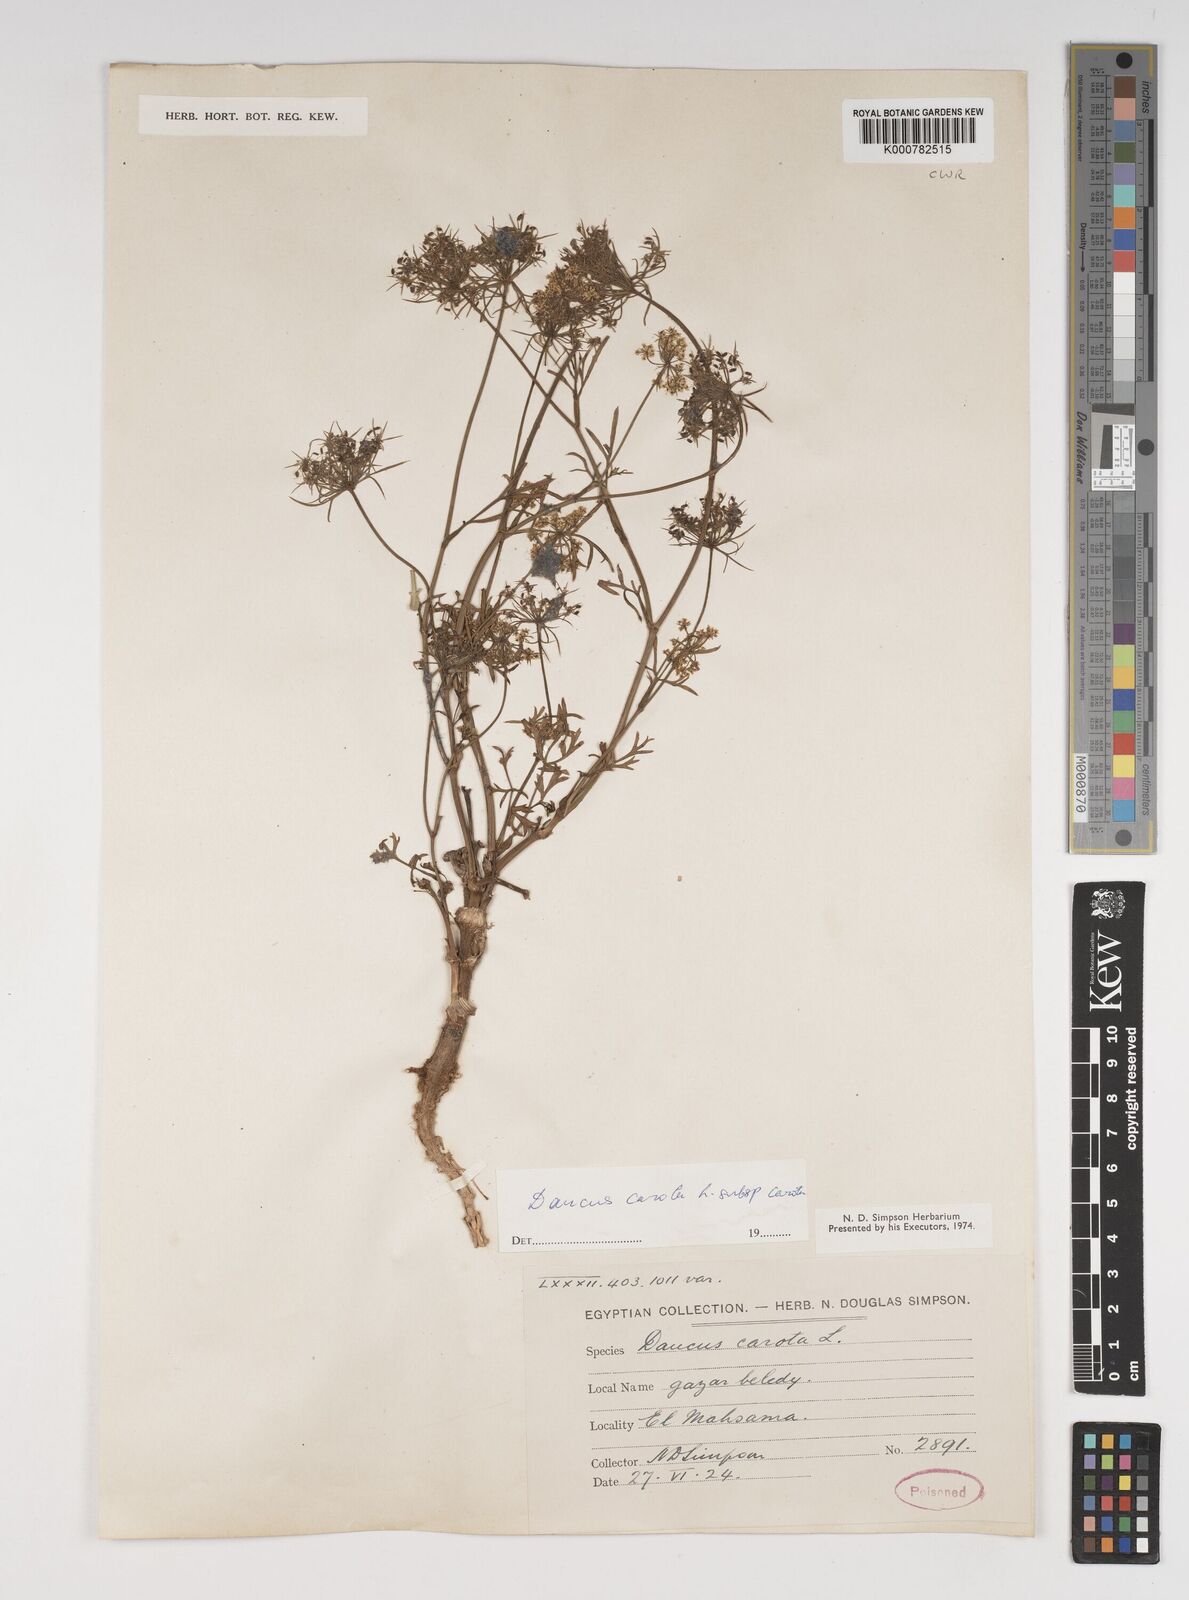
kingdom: Plantae
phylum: Tracheophyta
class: Magnoliopsida
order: Apiales
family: Apiaceae
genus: Daucus
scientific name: Daucus carota
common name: Wild carrot
